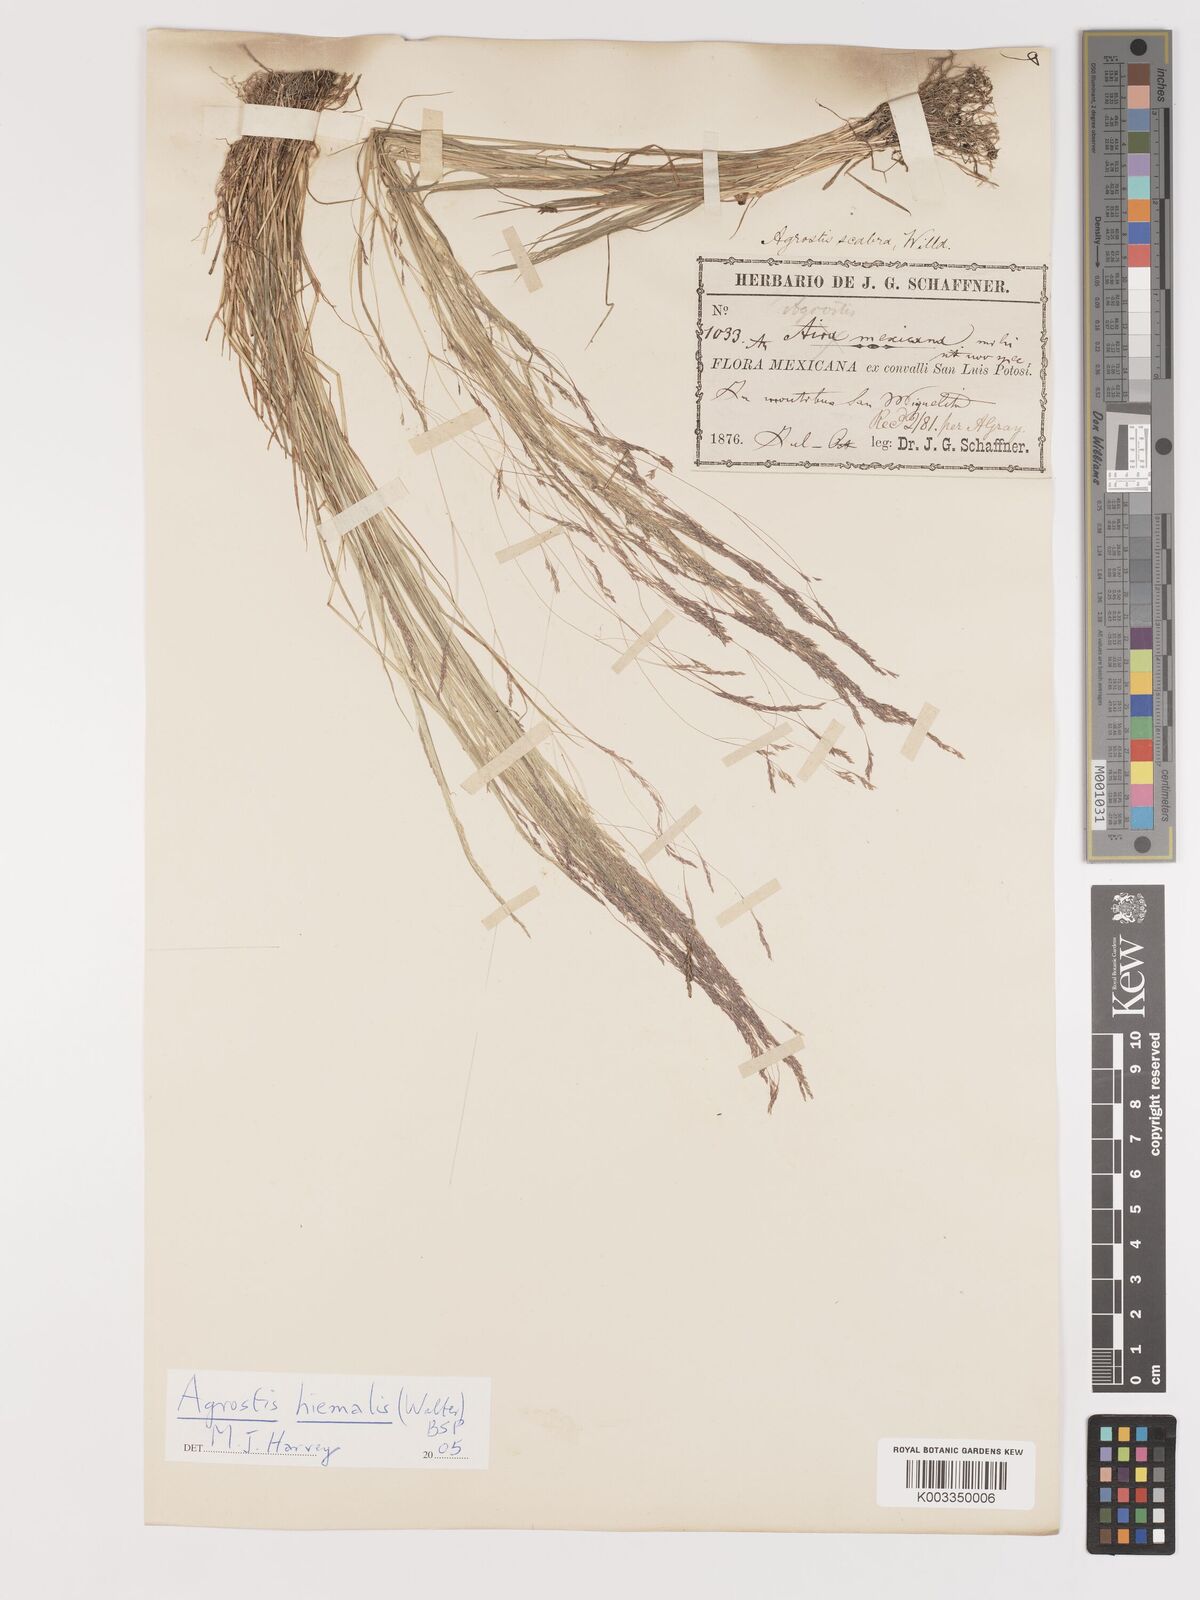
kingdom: Plantae
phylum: Tracheophyta
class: Liliopsida
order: Poales
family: Poaceae
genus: Agrostis
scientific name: Agrostis hyemalis
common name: Small bent
